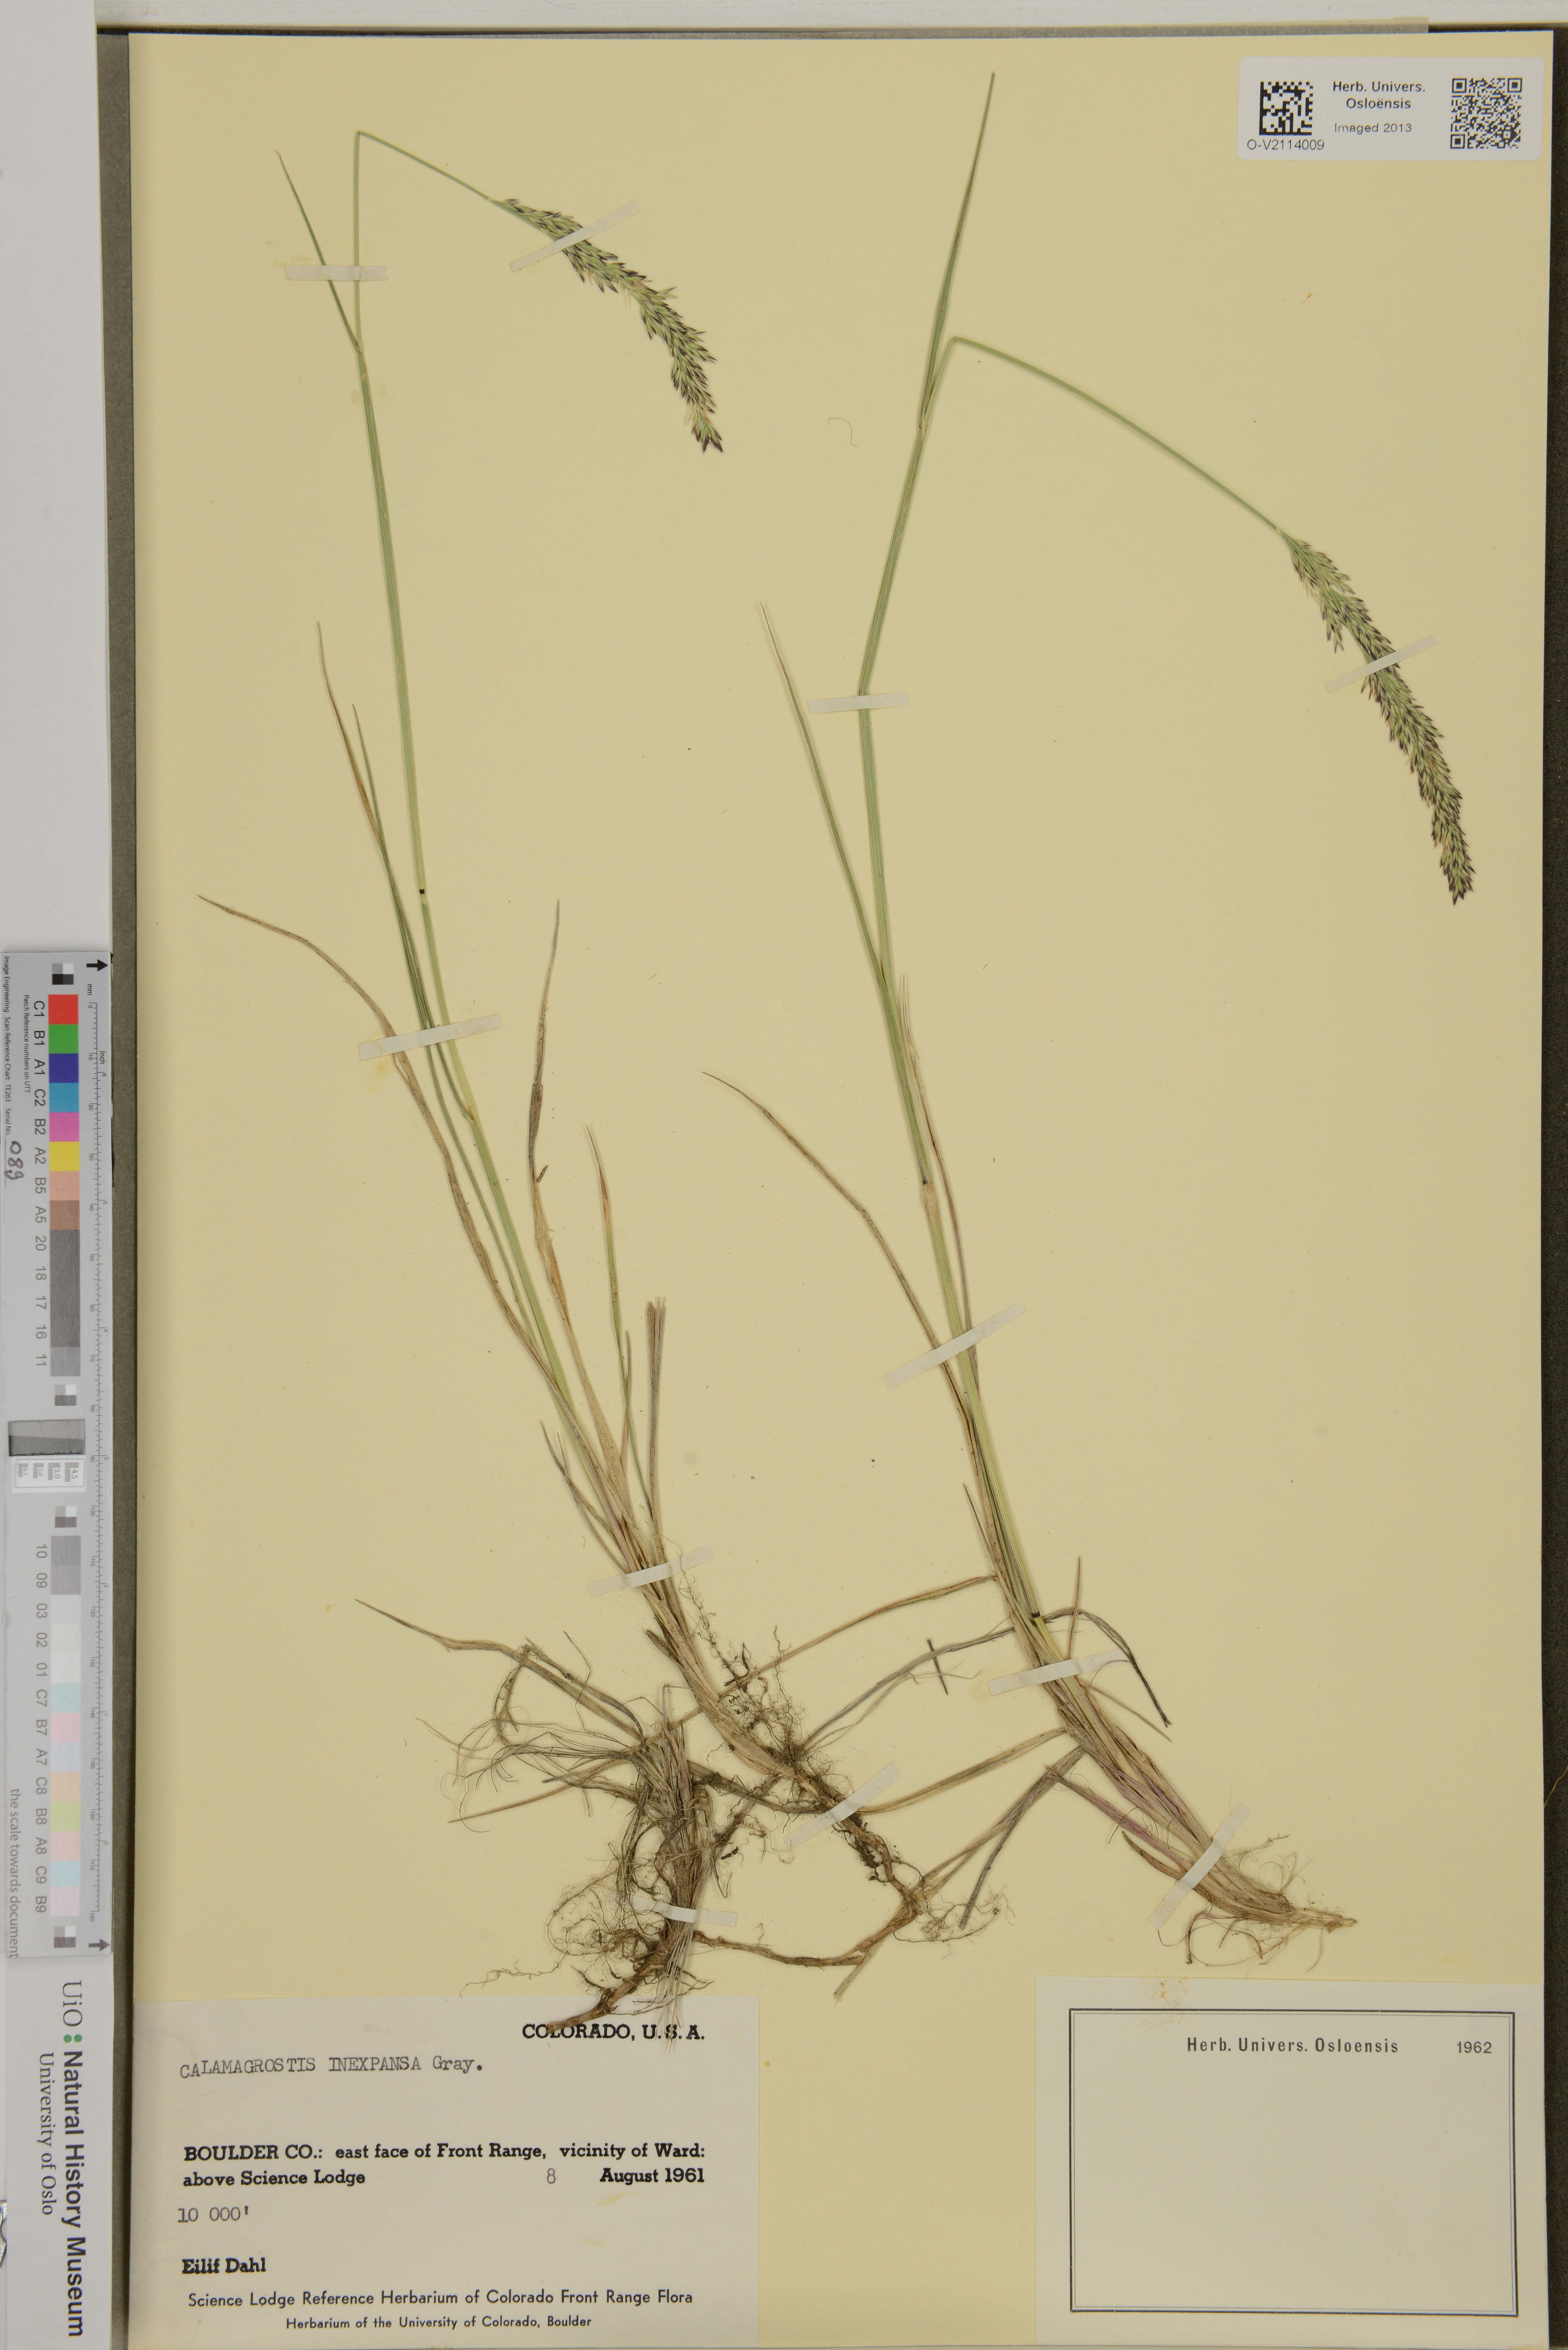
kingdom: Plantae
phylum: Tracheophyta
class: Liliopsida
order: Poales
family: Poaceae
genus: Calamagrostis
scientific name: Calamagrostis inexpansa
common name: Northern reedgrass
